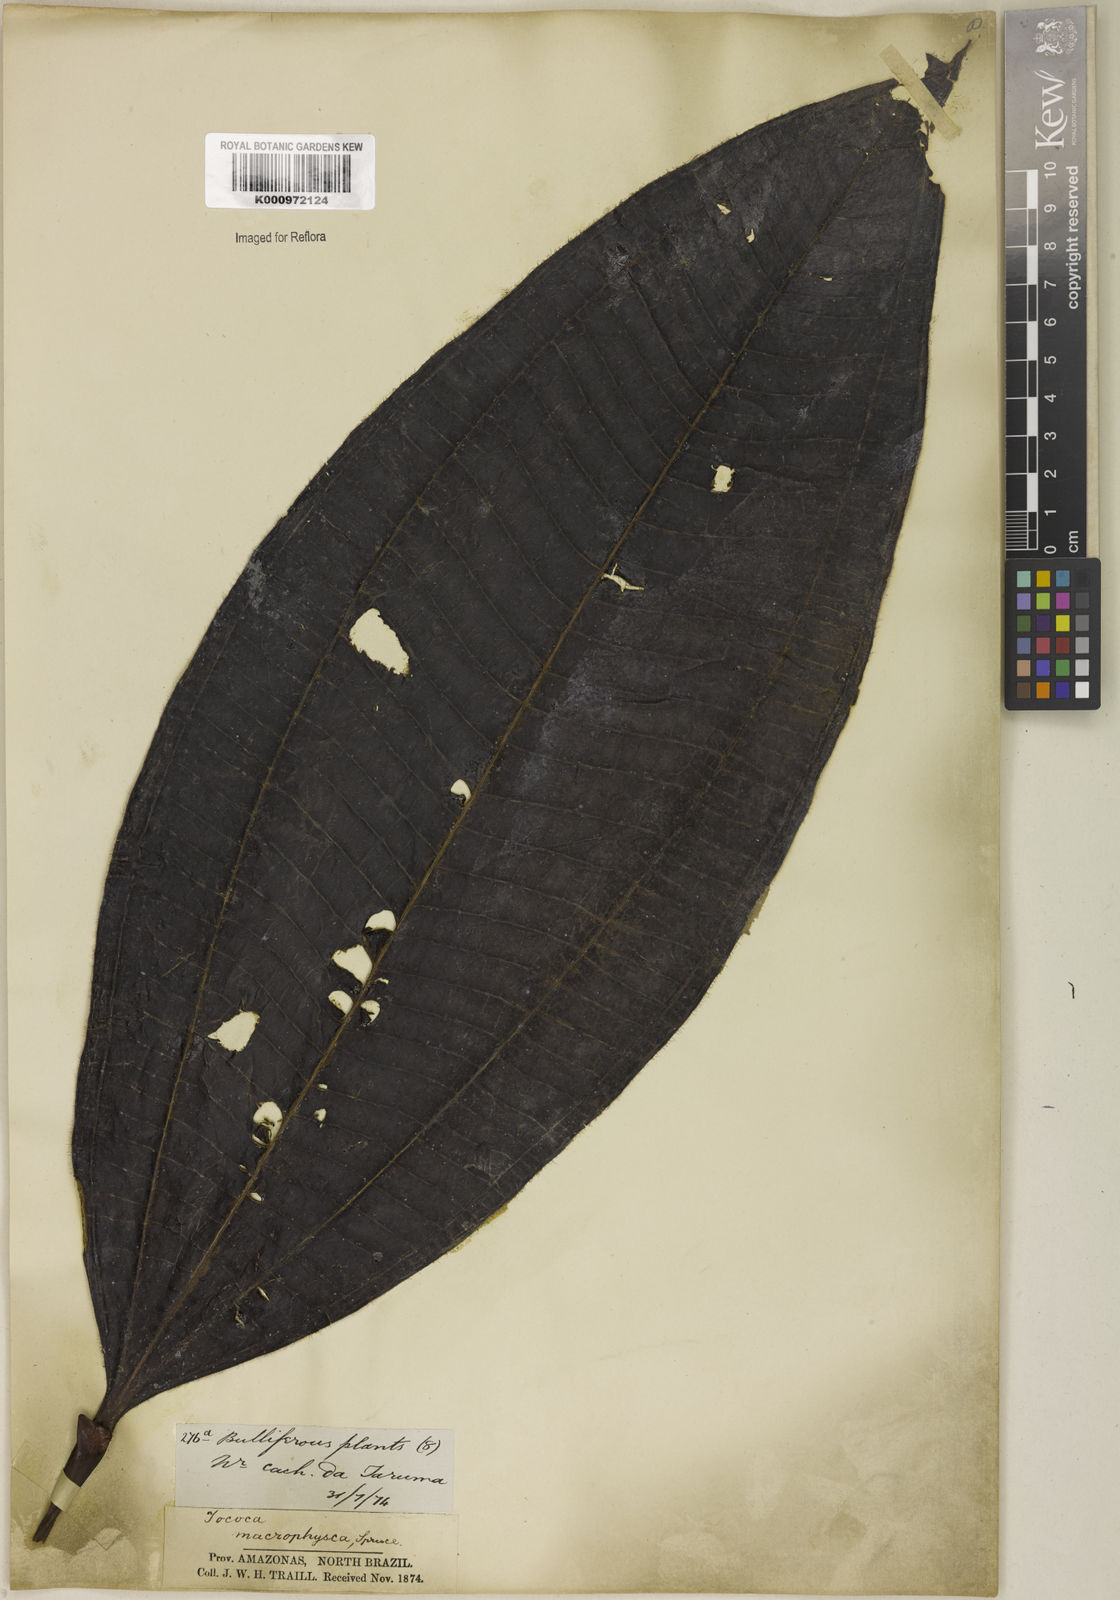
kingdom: Plantae
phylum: Tracheophyta
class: Magnoliopsida
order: Myrtales
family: Melastomataceae
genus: Miconia
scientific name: Miconia macrophysca
